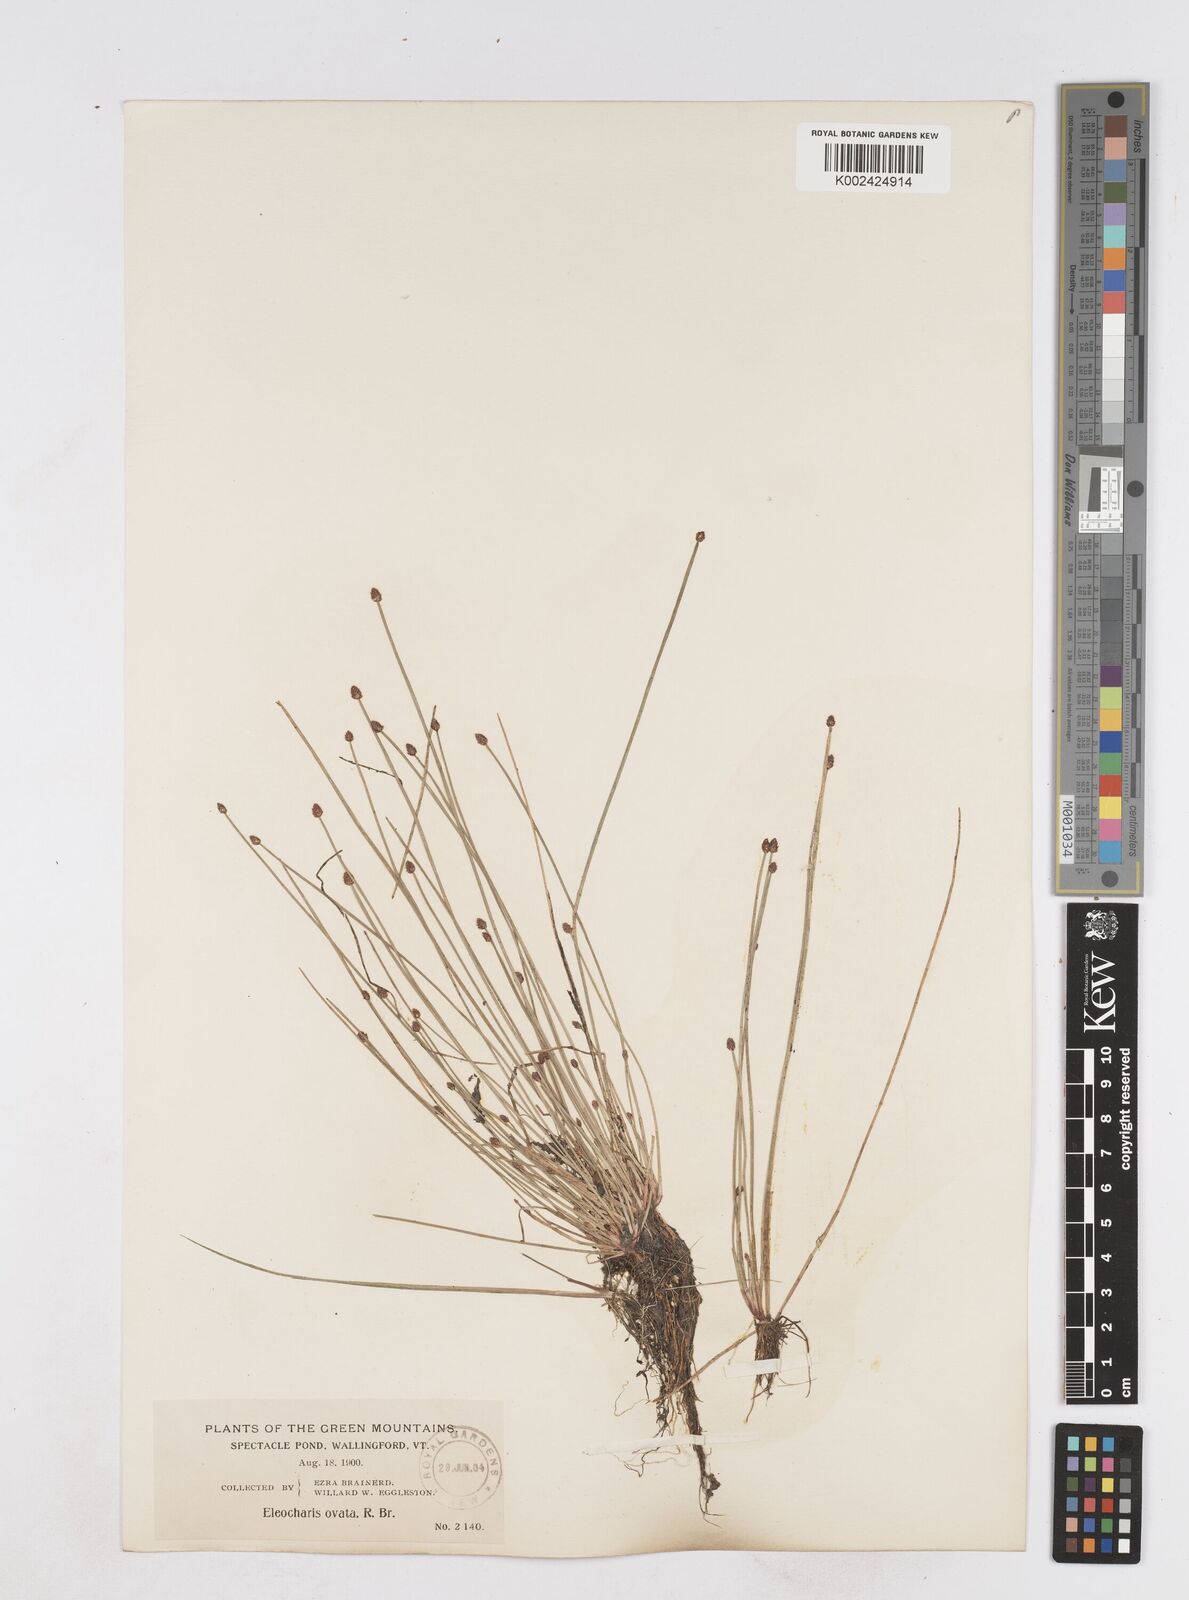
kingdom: Plantae
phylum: Tracheophyta
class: Liliopsida
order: Poales
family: Cyperaceae
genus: Eleocharis
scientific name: Eleocharis ovata
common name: Oval spike-rush
